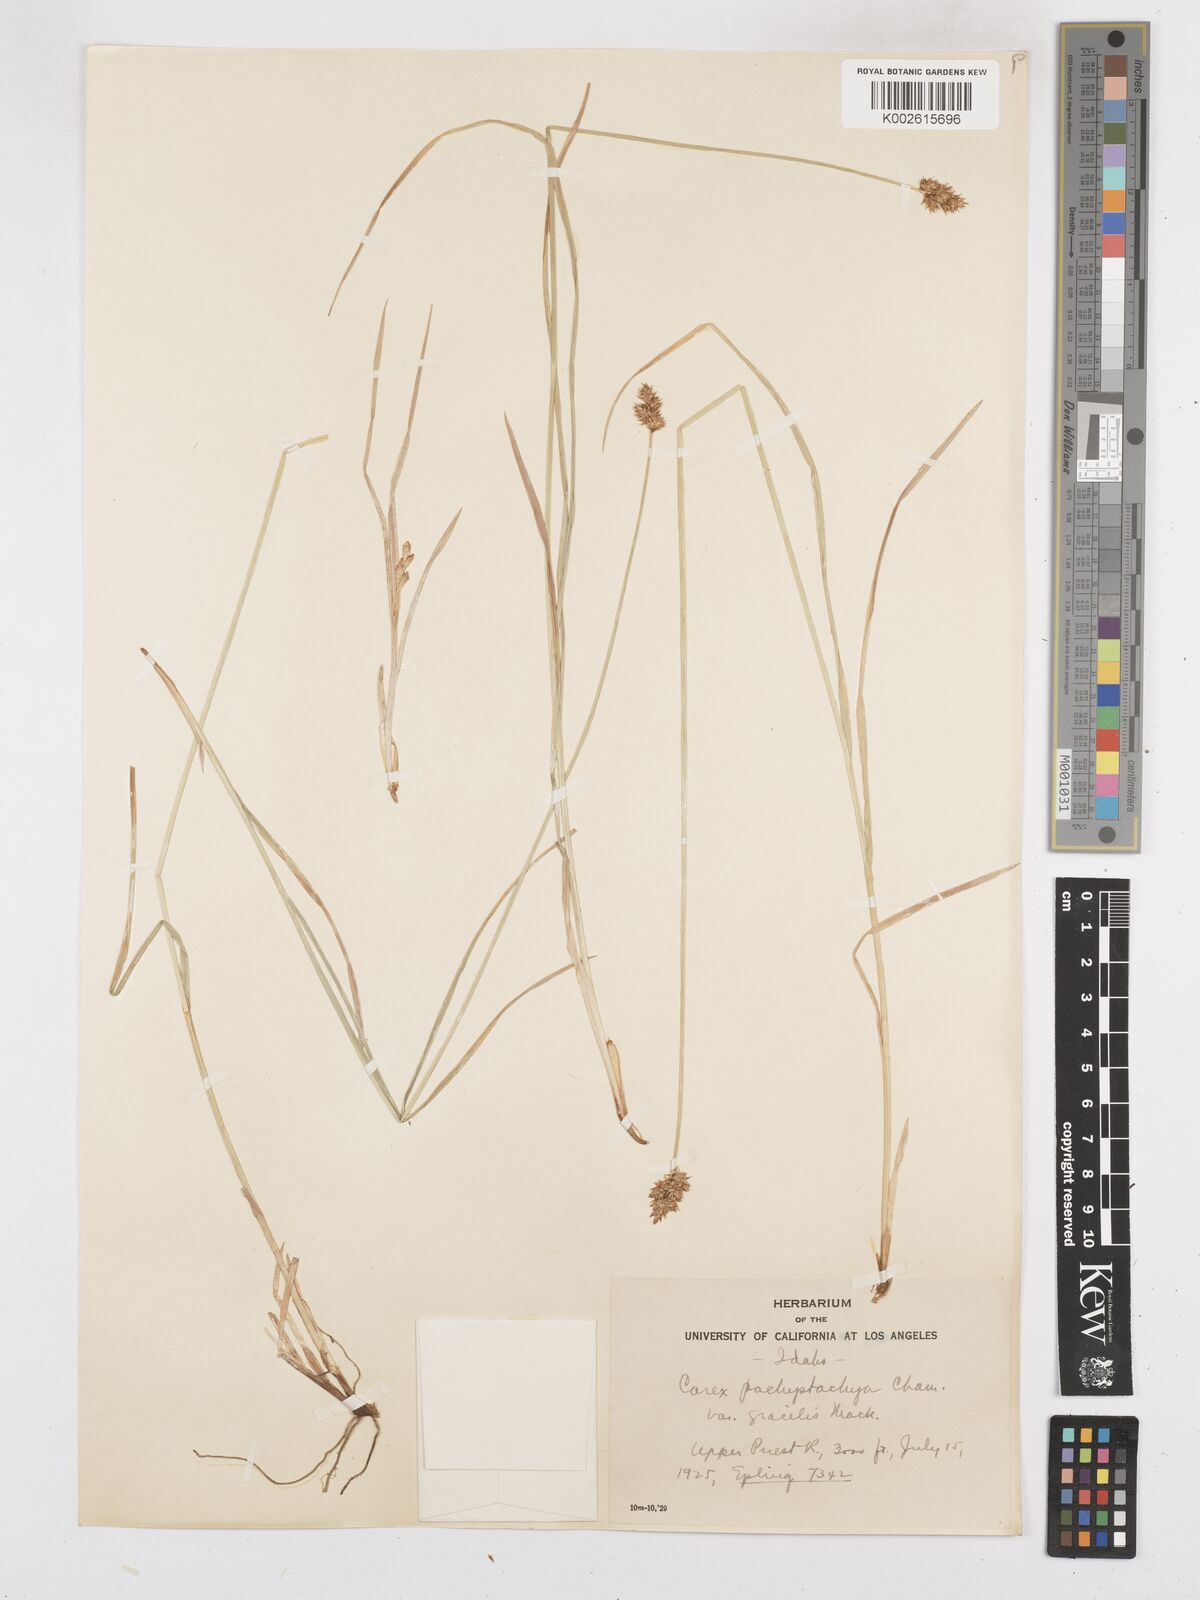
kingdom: Plantae
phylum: Tracheophyta
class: Liliopsida
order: Poales
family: Cyperaceae
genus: Carex
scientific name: Carex pachystachya
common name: Chamisso's sedge
